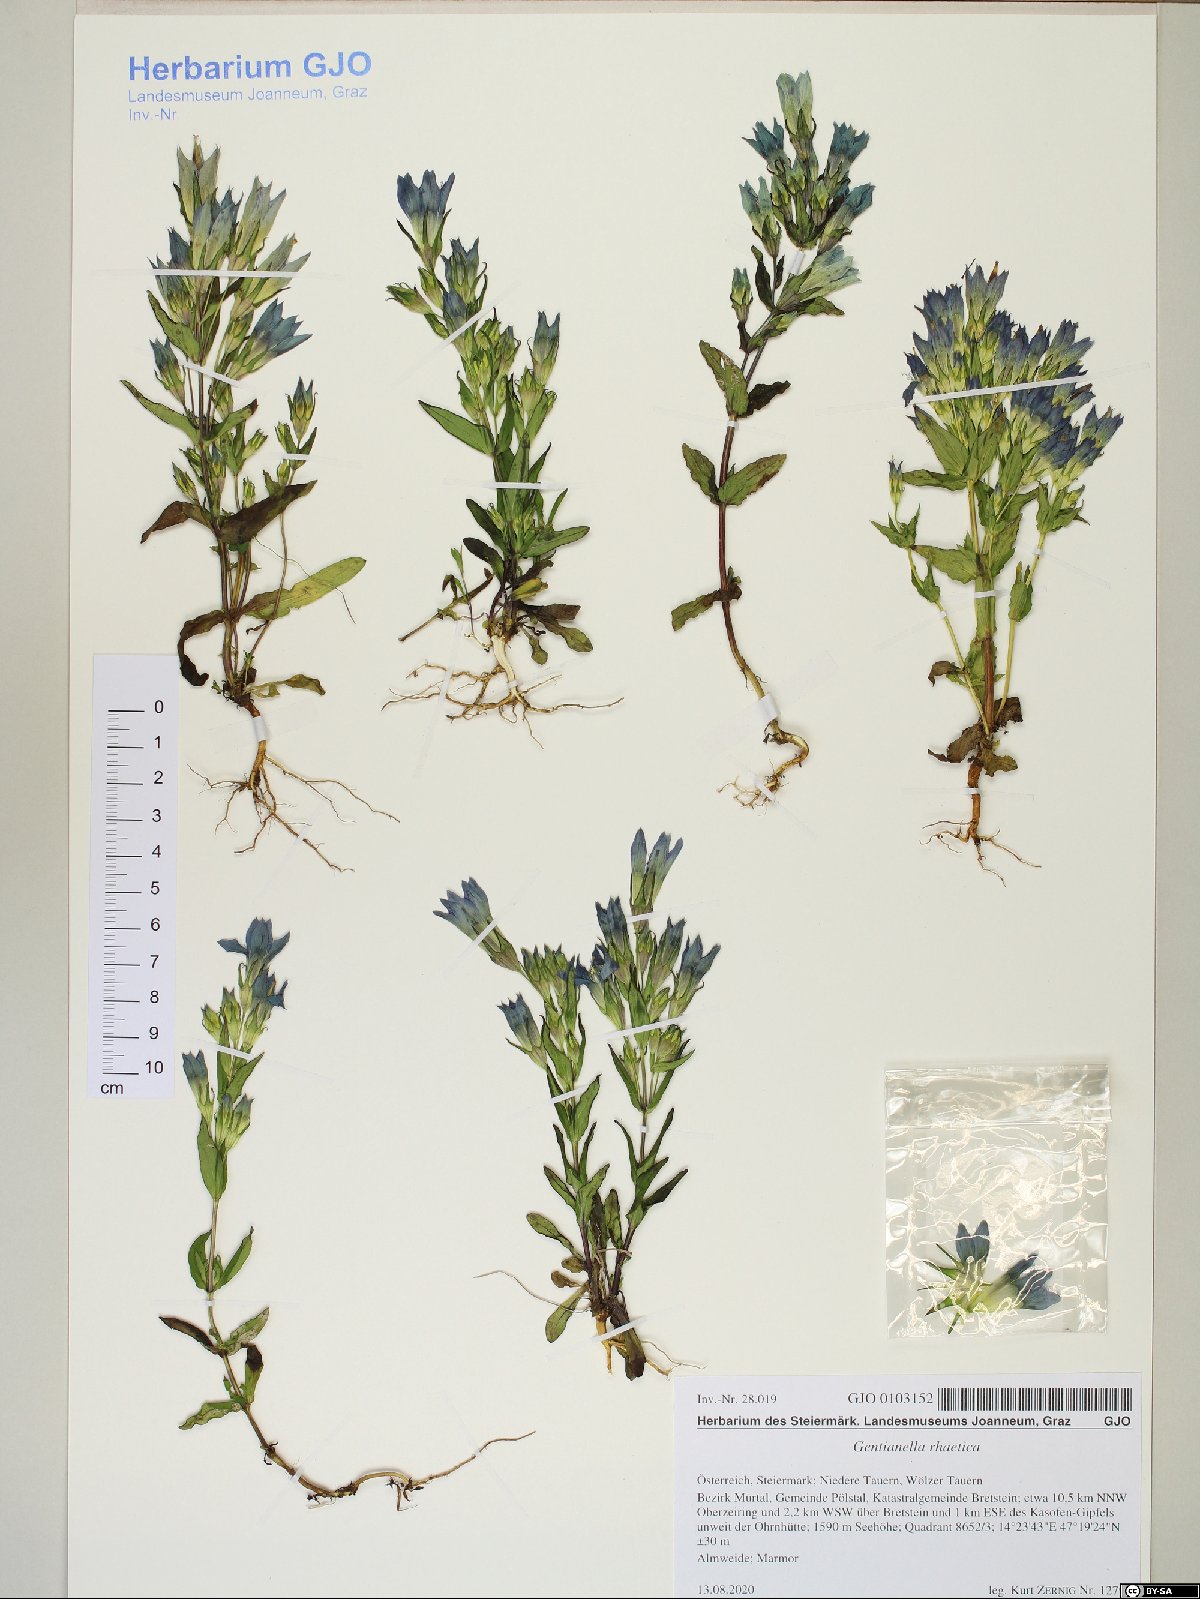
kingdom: Plantae
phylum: Tracheophyta
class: Magnoliopsida
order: Gentianales
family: Gentianaceae
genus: Gentianella
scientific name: Gentianella rhaetica
